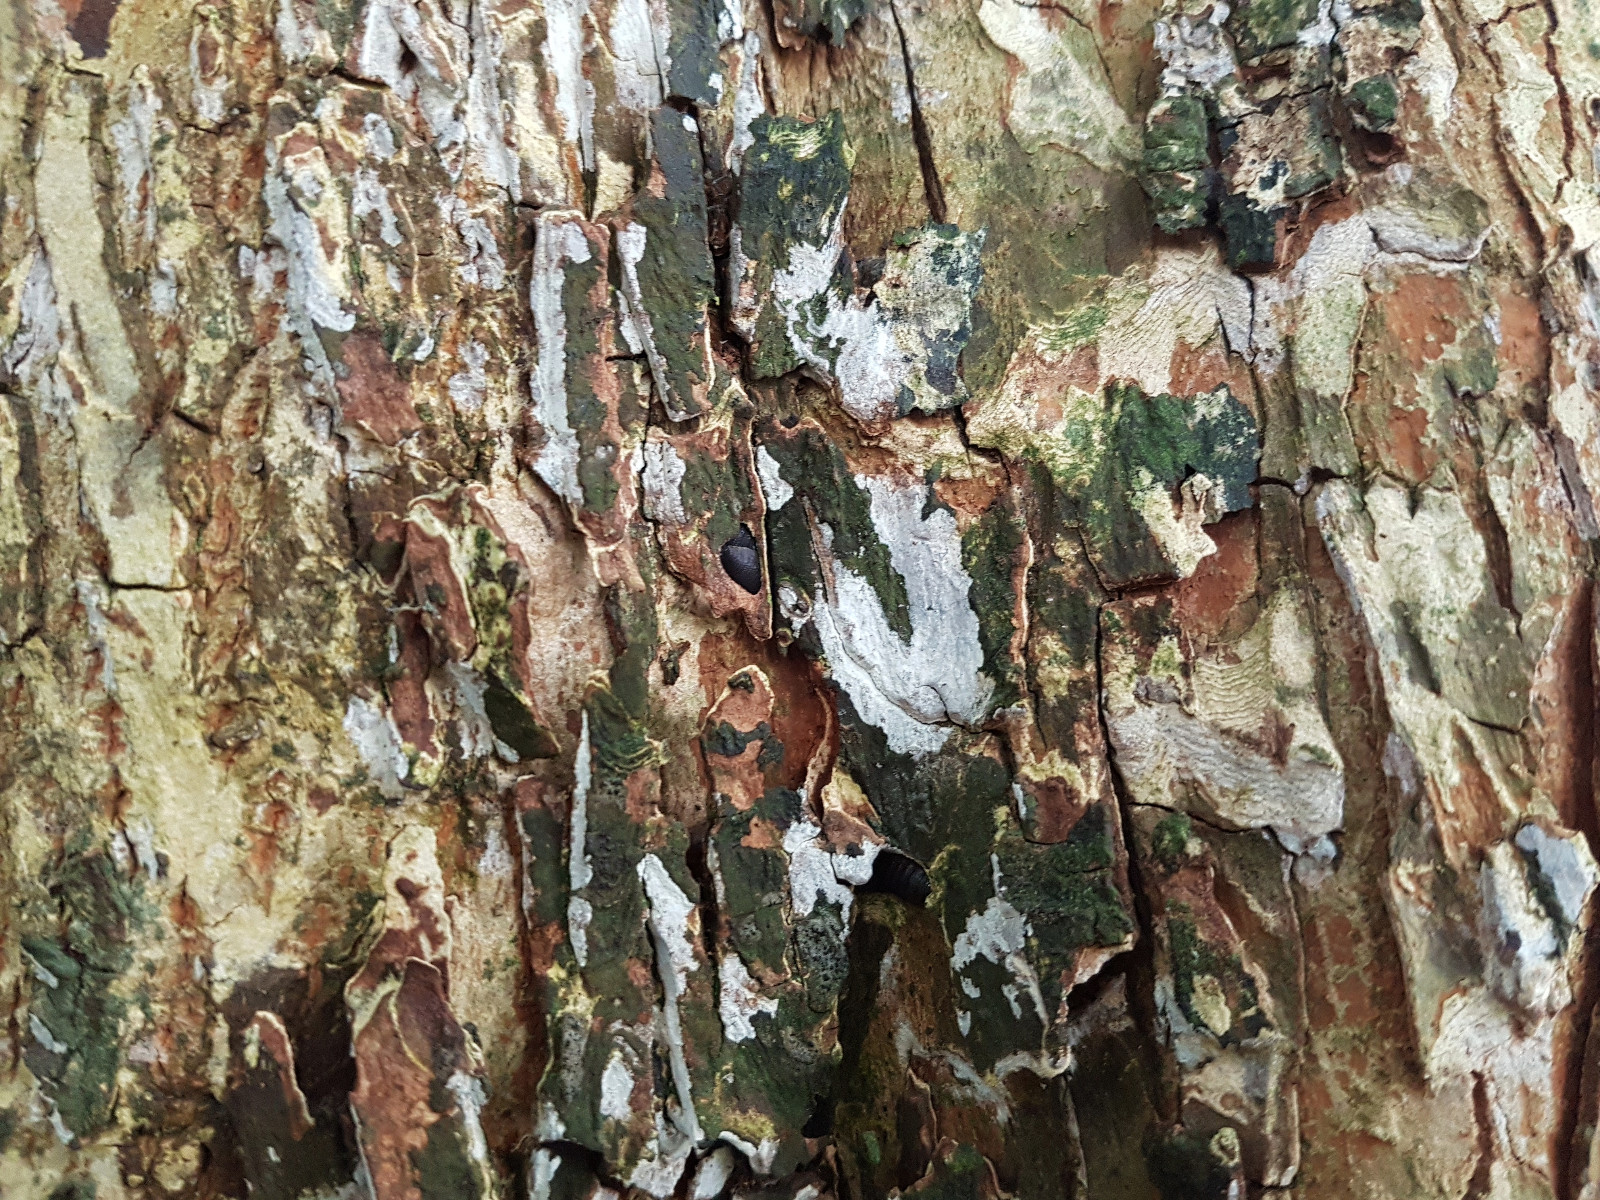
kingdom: Fungi
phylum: Basidiomycota
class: Agaricomycetes
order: Agaricales
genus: Dendrothele
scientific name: Dendrothele acerina
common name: navr-kalkplet
